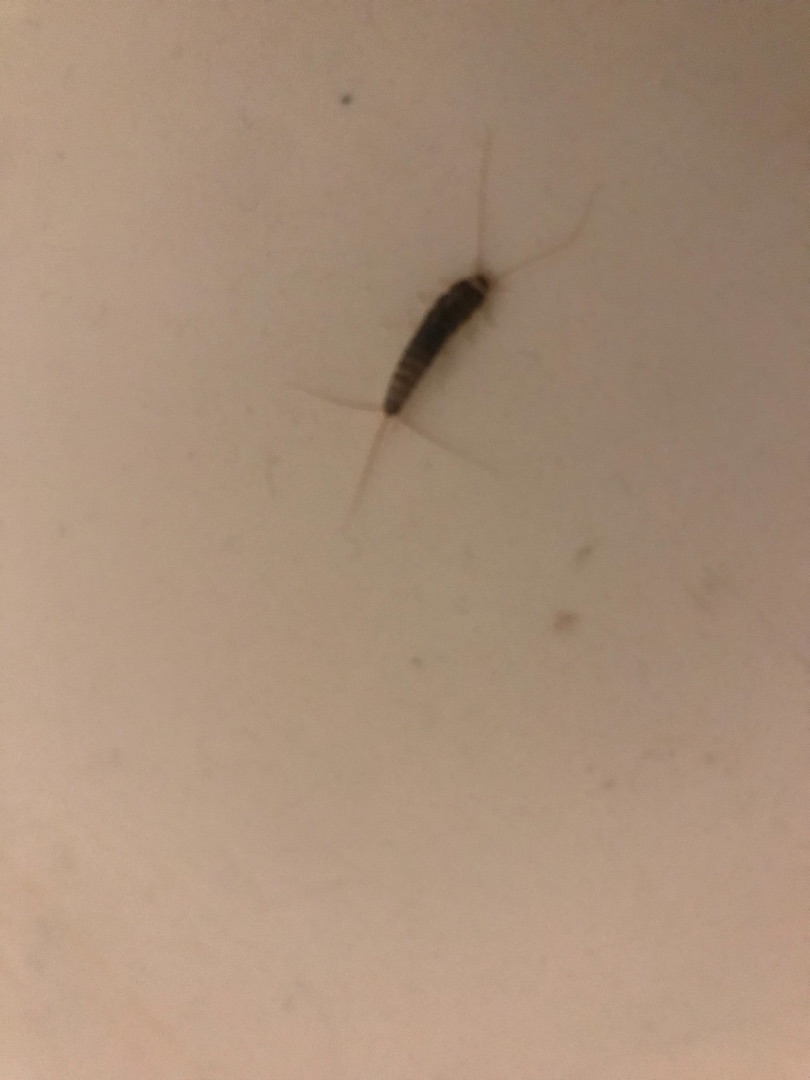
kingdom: Animalia
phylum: Arthropoda
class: Insecta
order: Zygentoma
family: Lepismatidae
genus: Ctenolepisma
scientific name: Ctenolepisma longicaudatum
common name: Skægget sølvkræ
